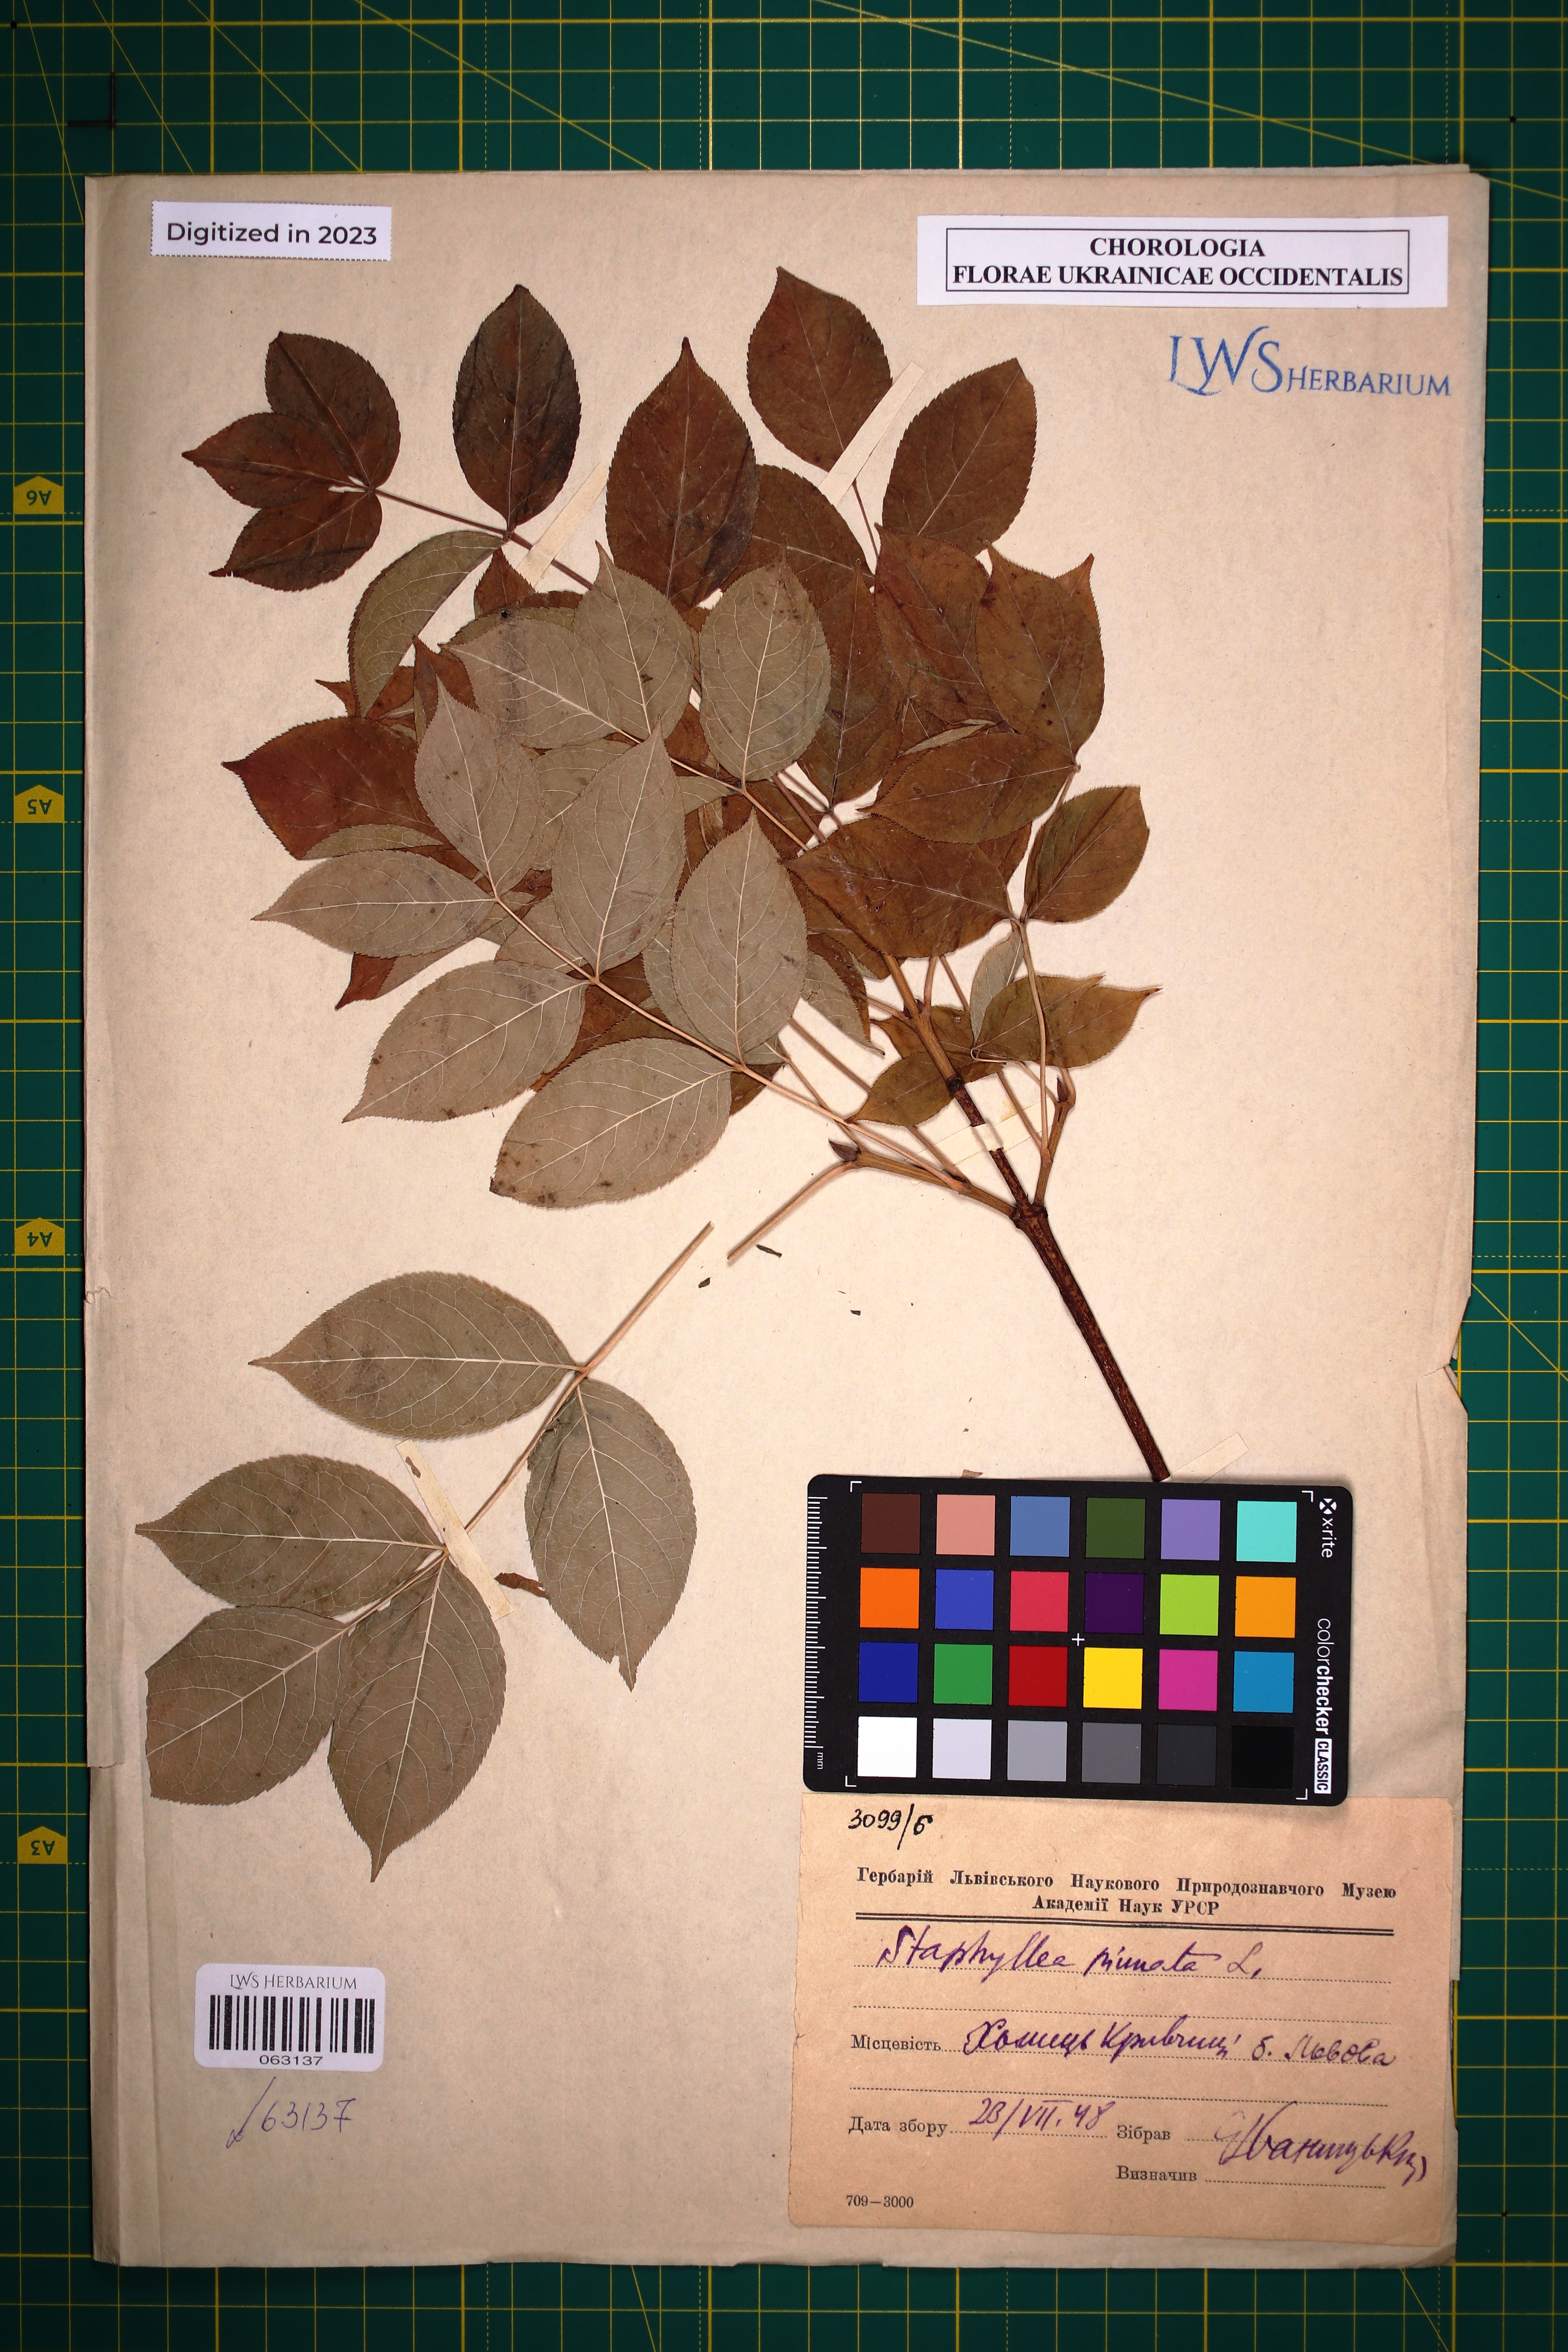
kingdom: Plantae
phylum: Tracheophyta
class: Magnoliopsida
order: Crossosomatales
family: Staphyleaceae
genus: Staphylea
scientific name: Staphylea pinnata
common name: Bladdernut
